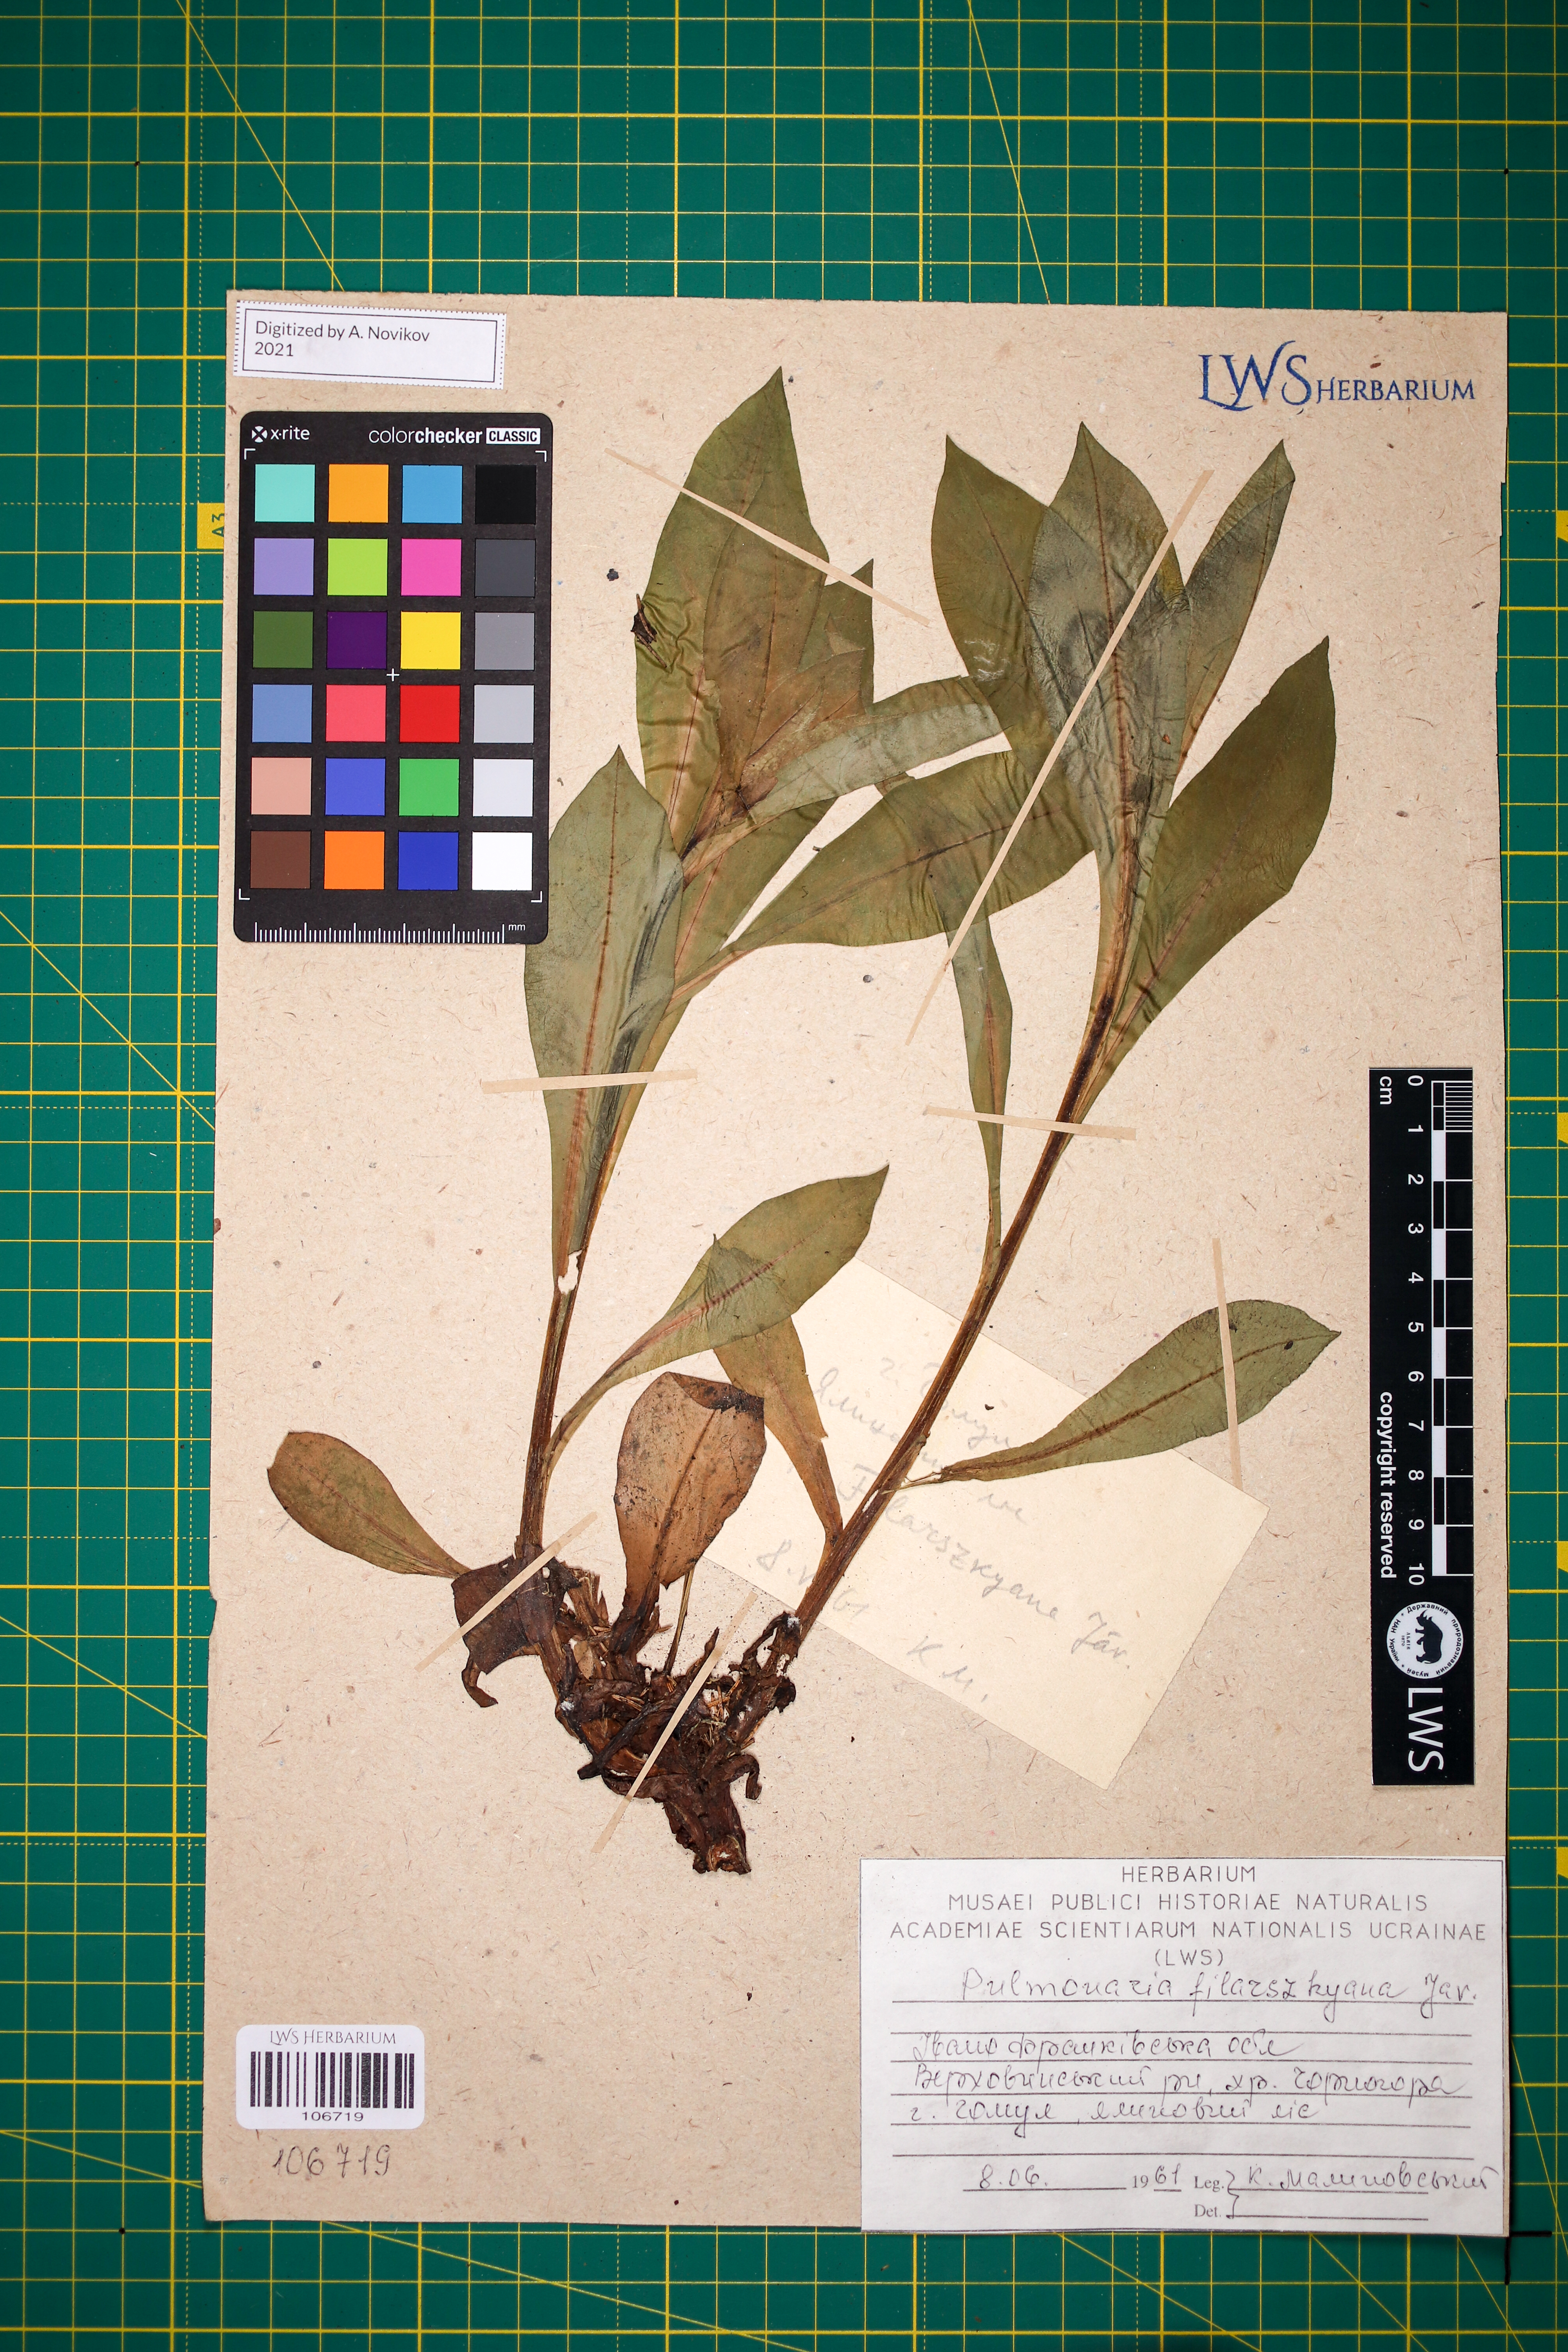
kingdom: Plantae
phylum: Tracheophyta
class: Magnoliopsida
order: Boraginales
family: Boraginaceae
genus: Pulmonaria
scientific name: Pulmonaria filarszkyana
